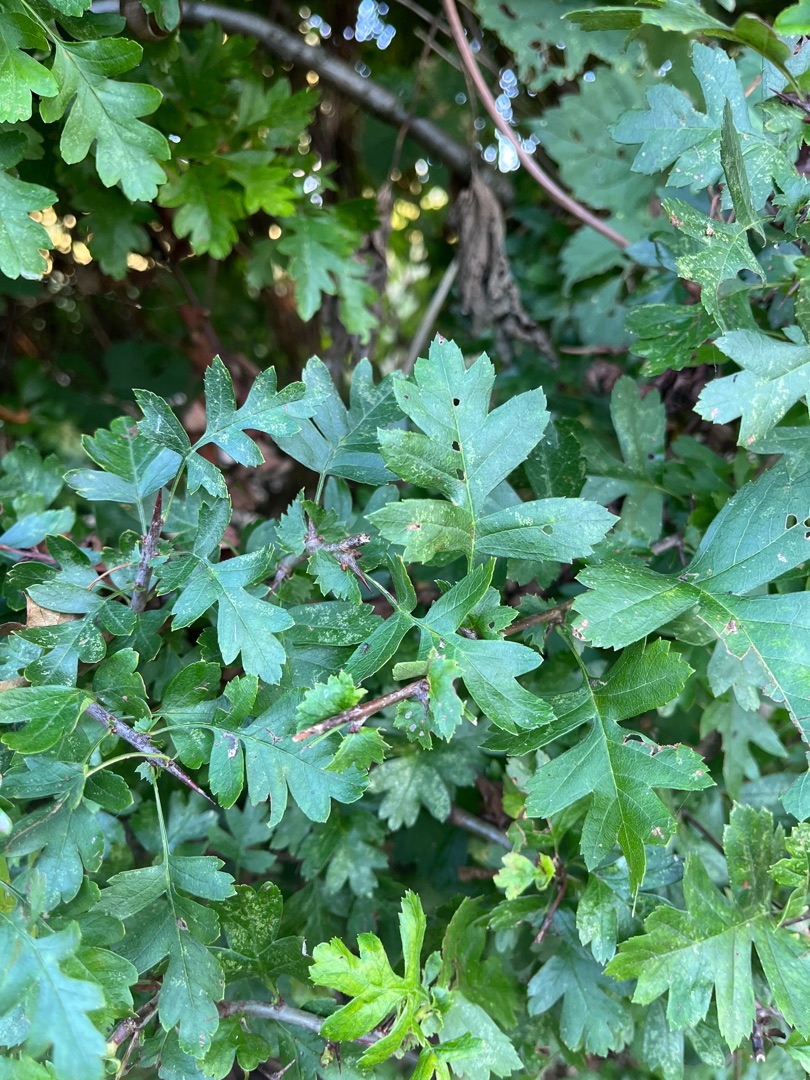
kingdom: Plantae
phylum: Tracheophyta
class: Magnoliopsida
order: Rosales
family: Rosaceae
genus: Crataegus
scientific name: Crataegus monogyna
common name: Engriflet hvidtjørn
